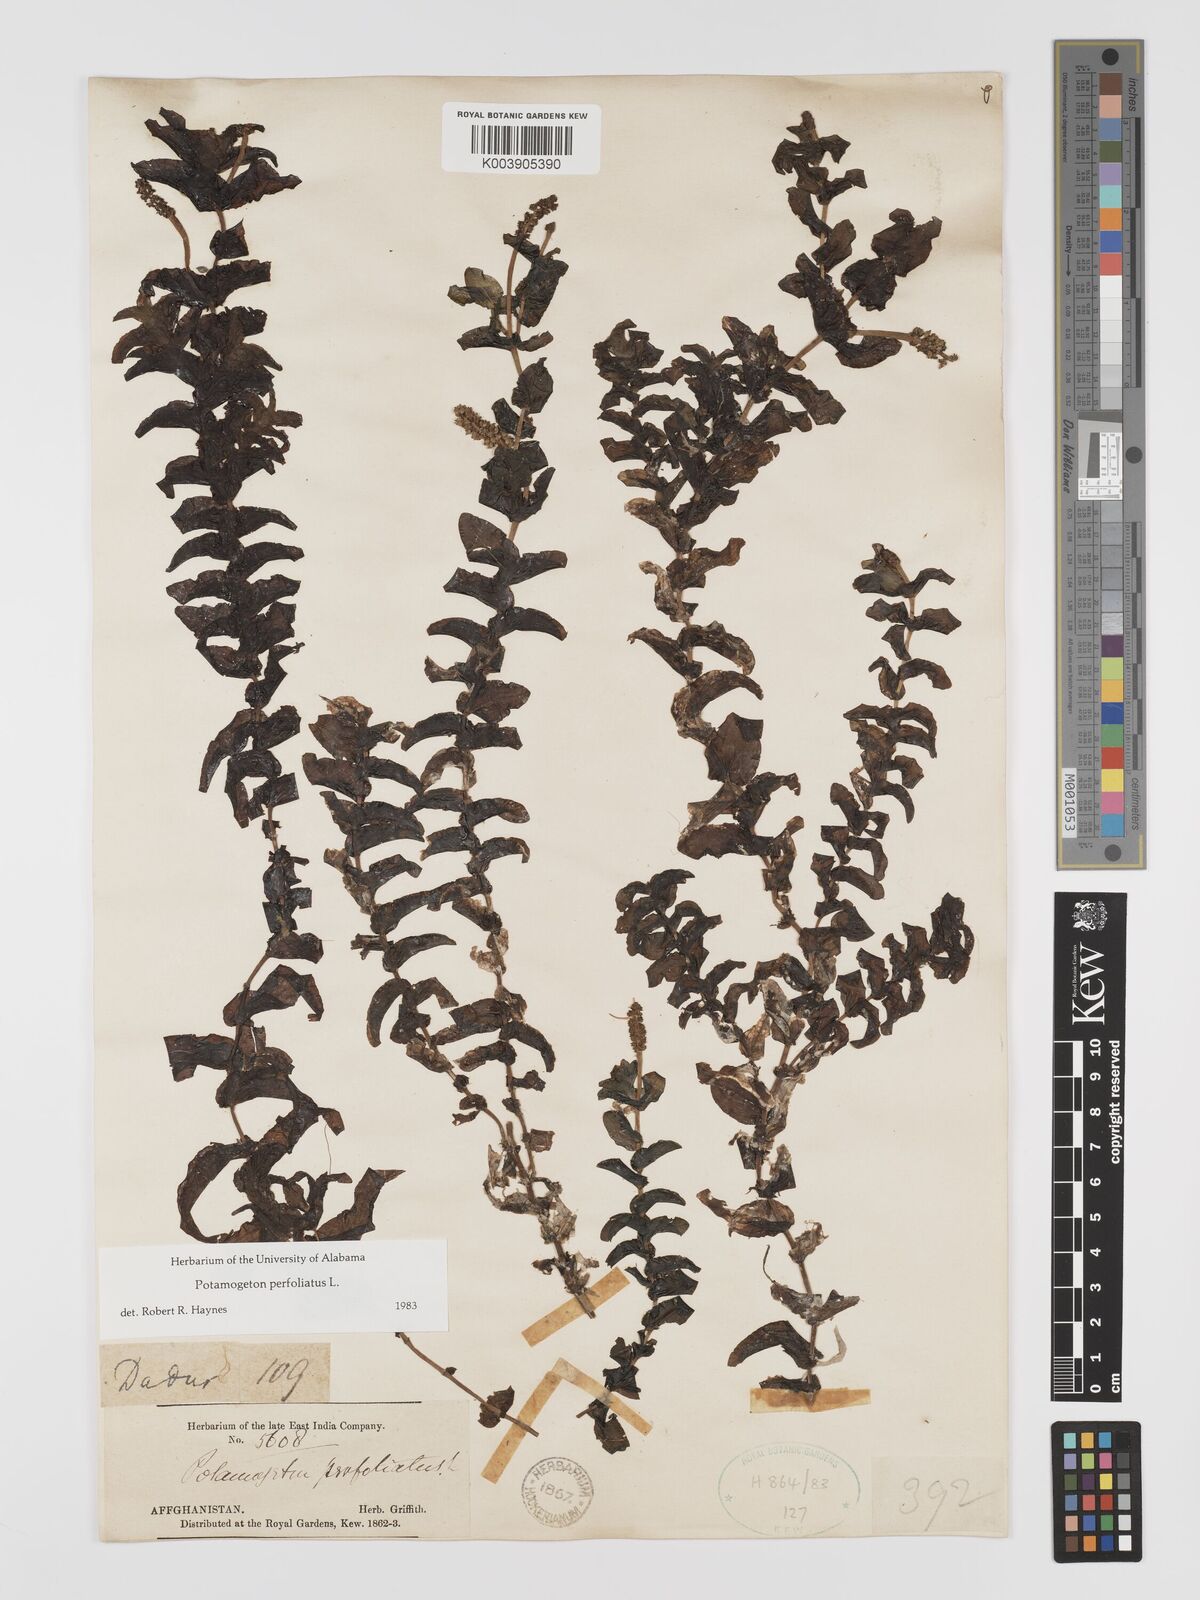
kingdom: Plantae
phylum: Tracheophyta
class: Liliopsida
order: Alismatales
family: Potamogetonaceae
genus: Potamogeton
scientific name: Potamogeton perfoliatus
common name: Perfoliate pondweed
